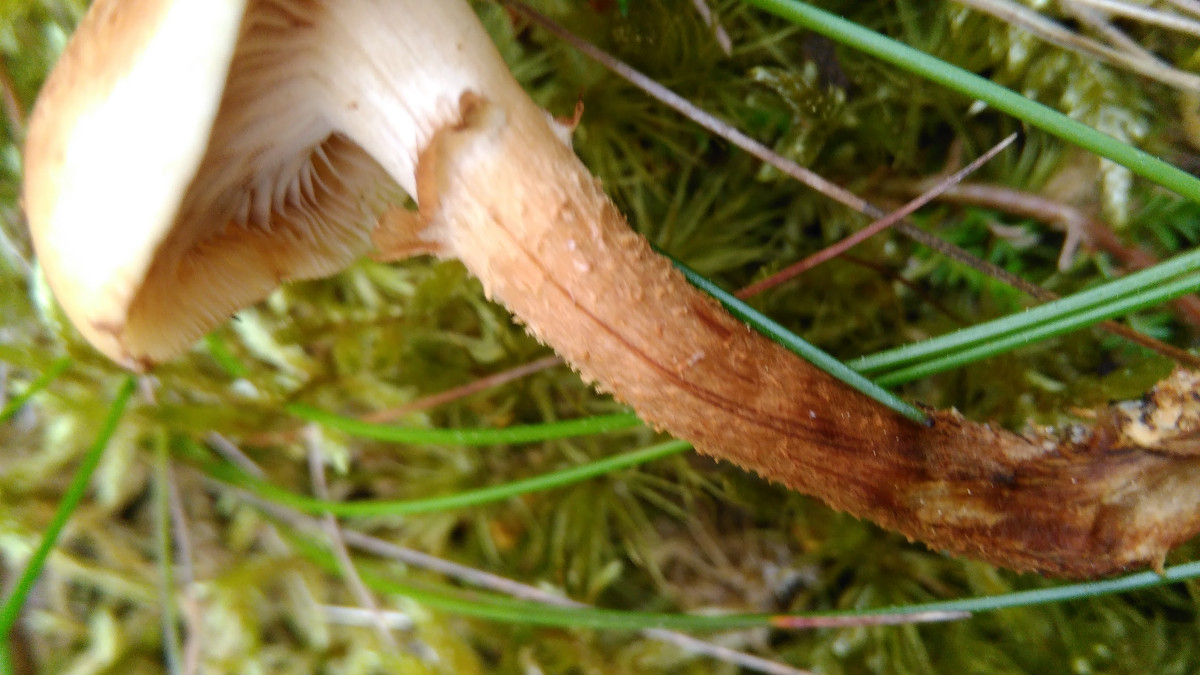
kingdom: Fungi
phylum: Basidiomycota
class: Agaricomycetes
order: Agaricales
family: Strophariaceae
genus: Kuehneromyces
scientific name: Kuehneromyces mutabilis
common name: foranderlig skælhat
